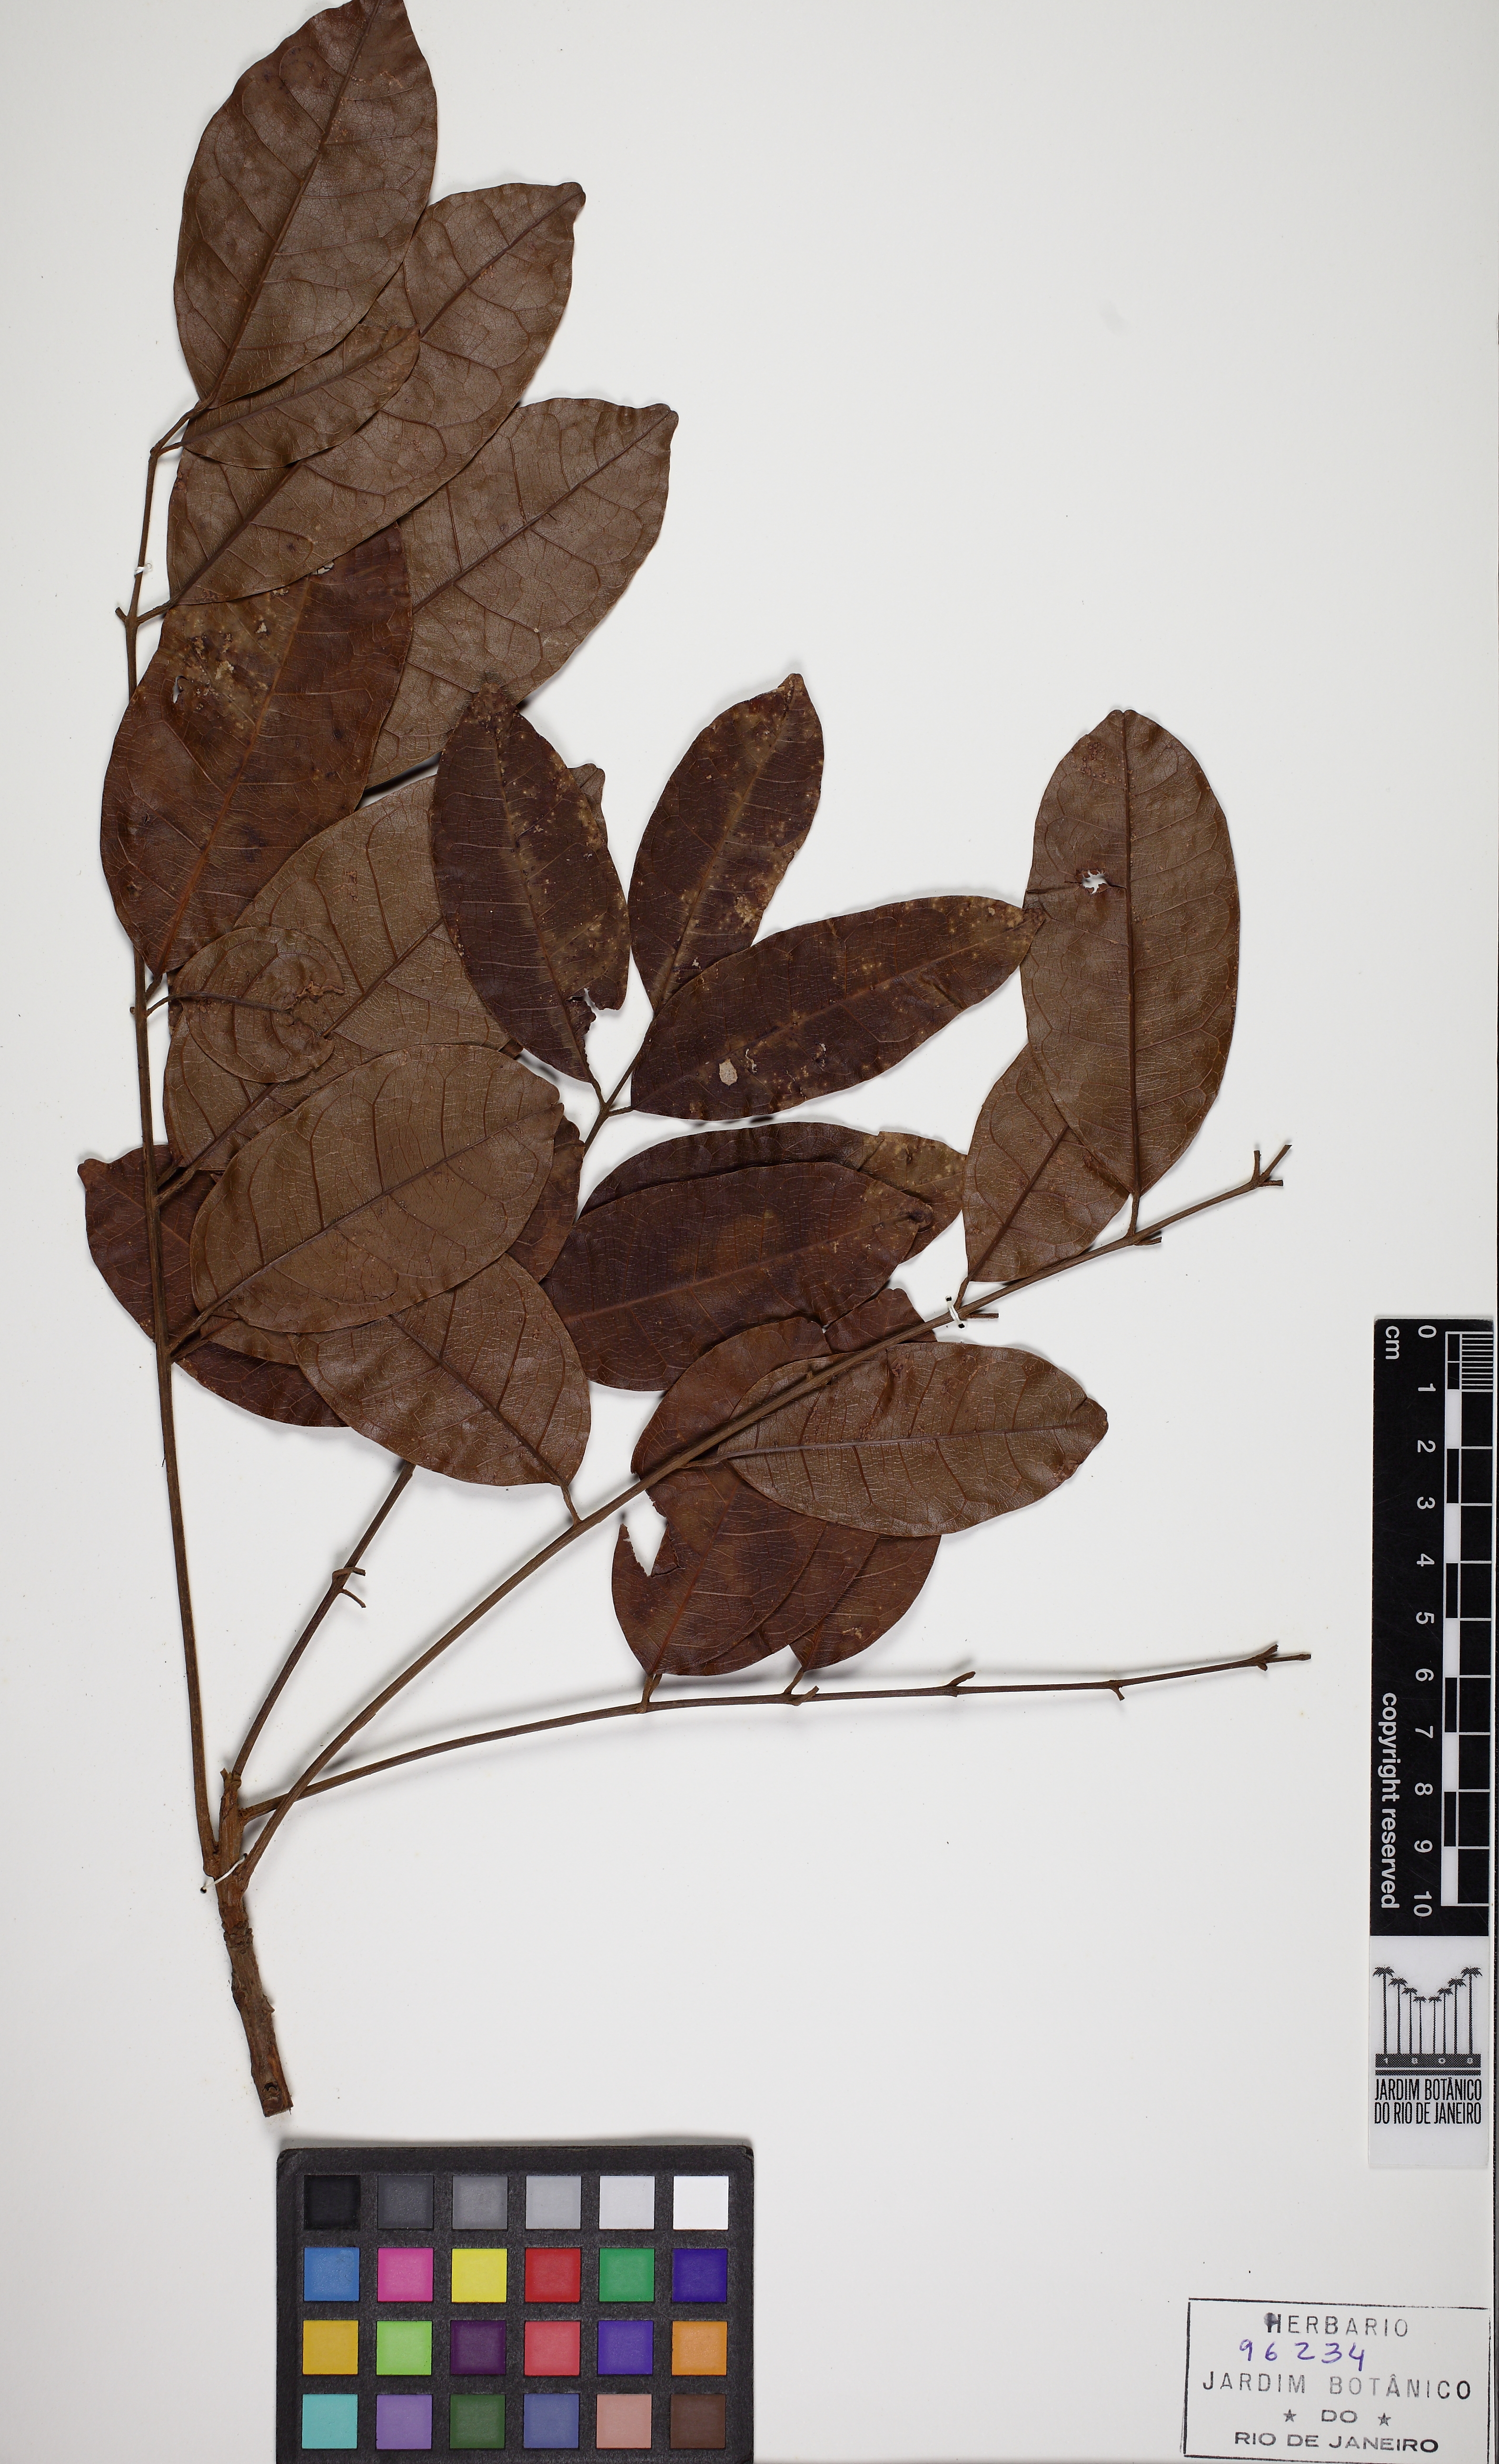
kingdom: Plantae
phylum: Tracheophyta
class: Magnoliopsida
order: Sapindales
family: Burseraceae
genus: Protium
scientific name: Protium apiculatum
